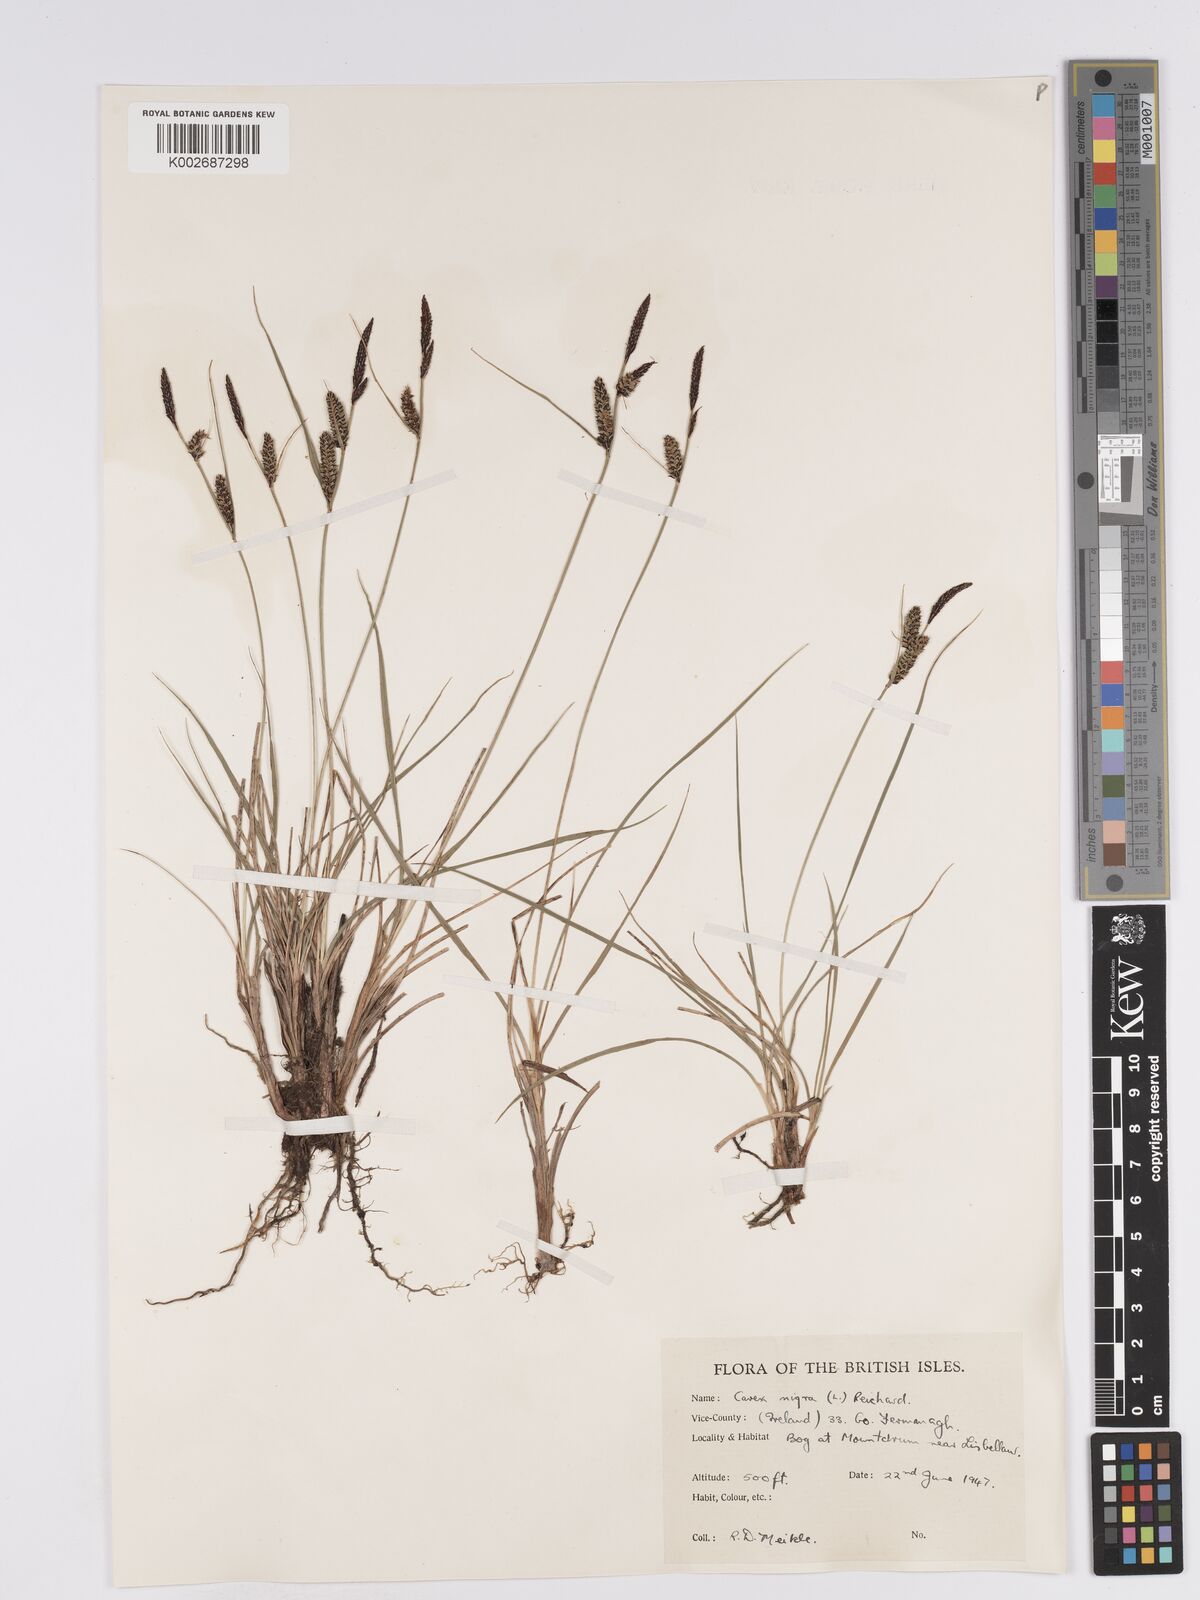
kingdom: Plantae
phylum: Tracheophyta
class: Liliopsida
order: Poales
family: Cyperaceae
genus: Carex
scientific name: Carex nigra
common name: Common sedge
